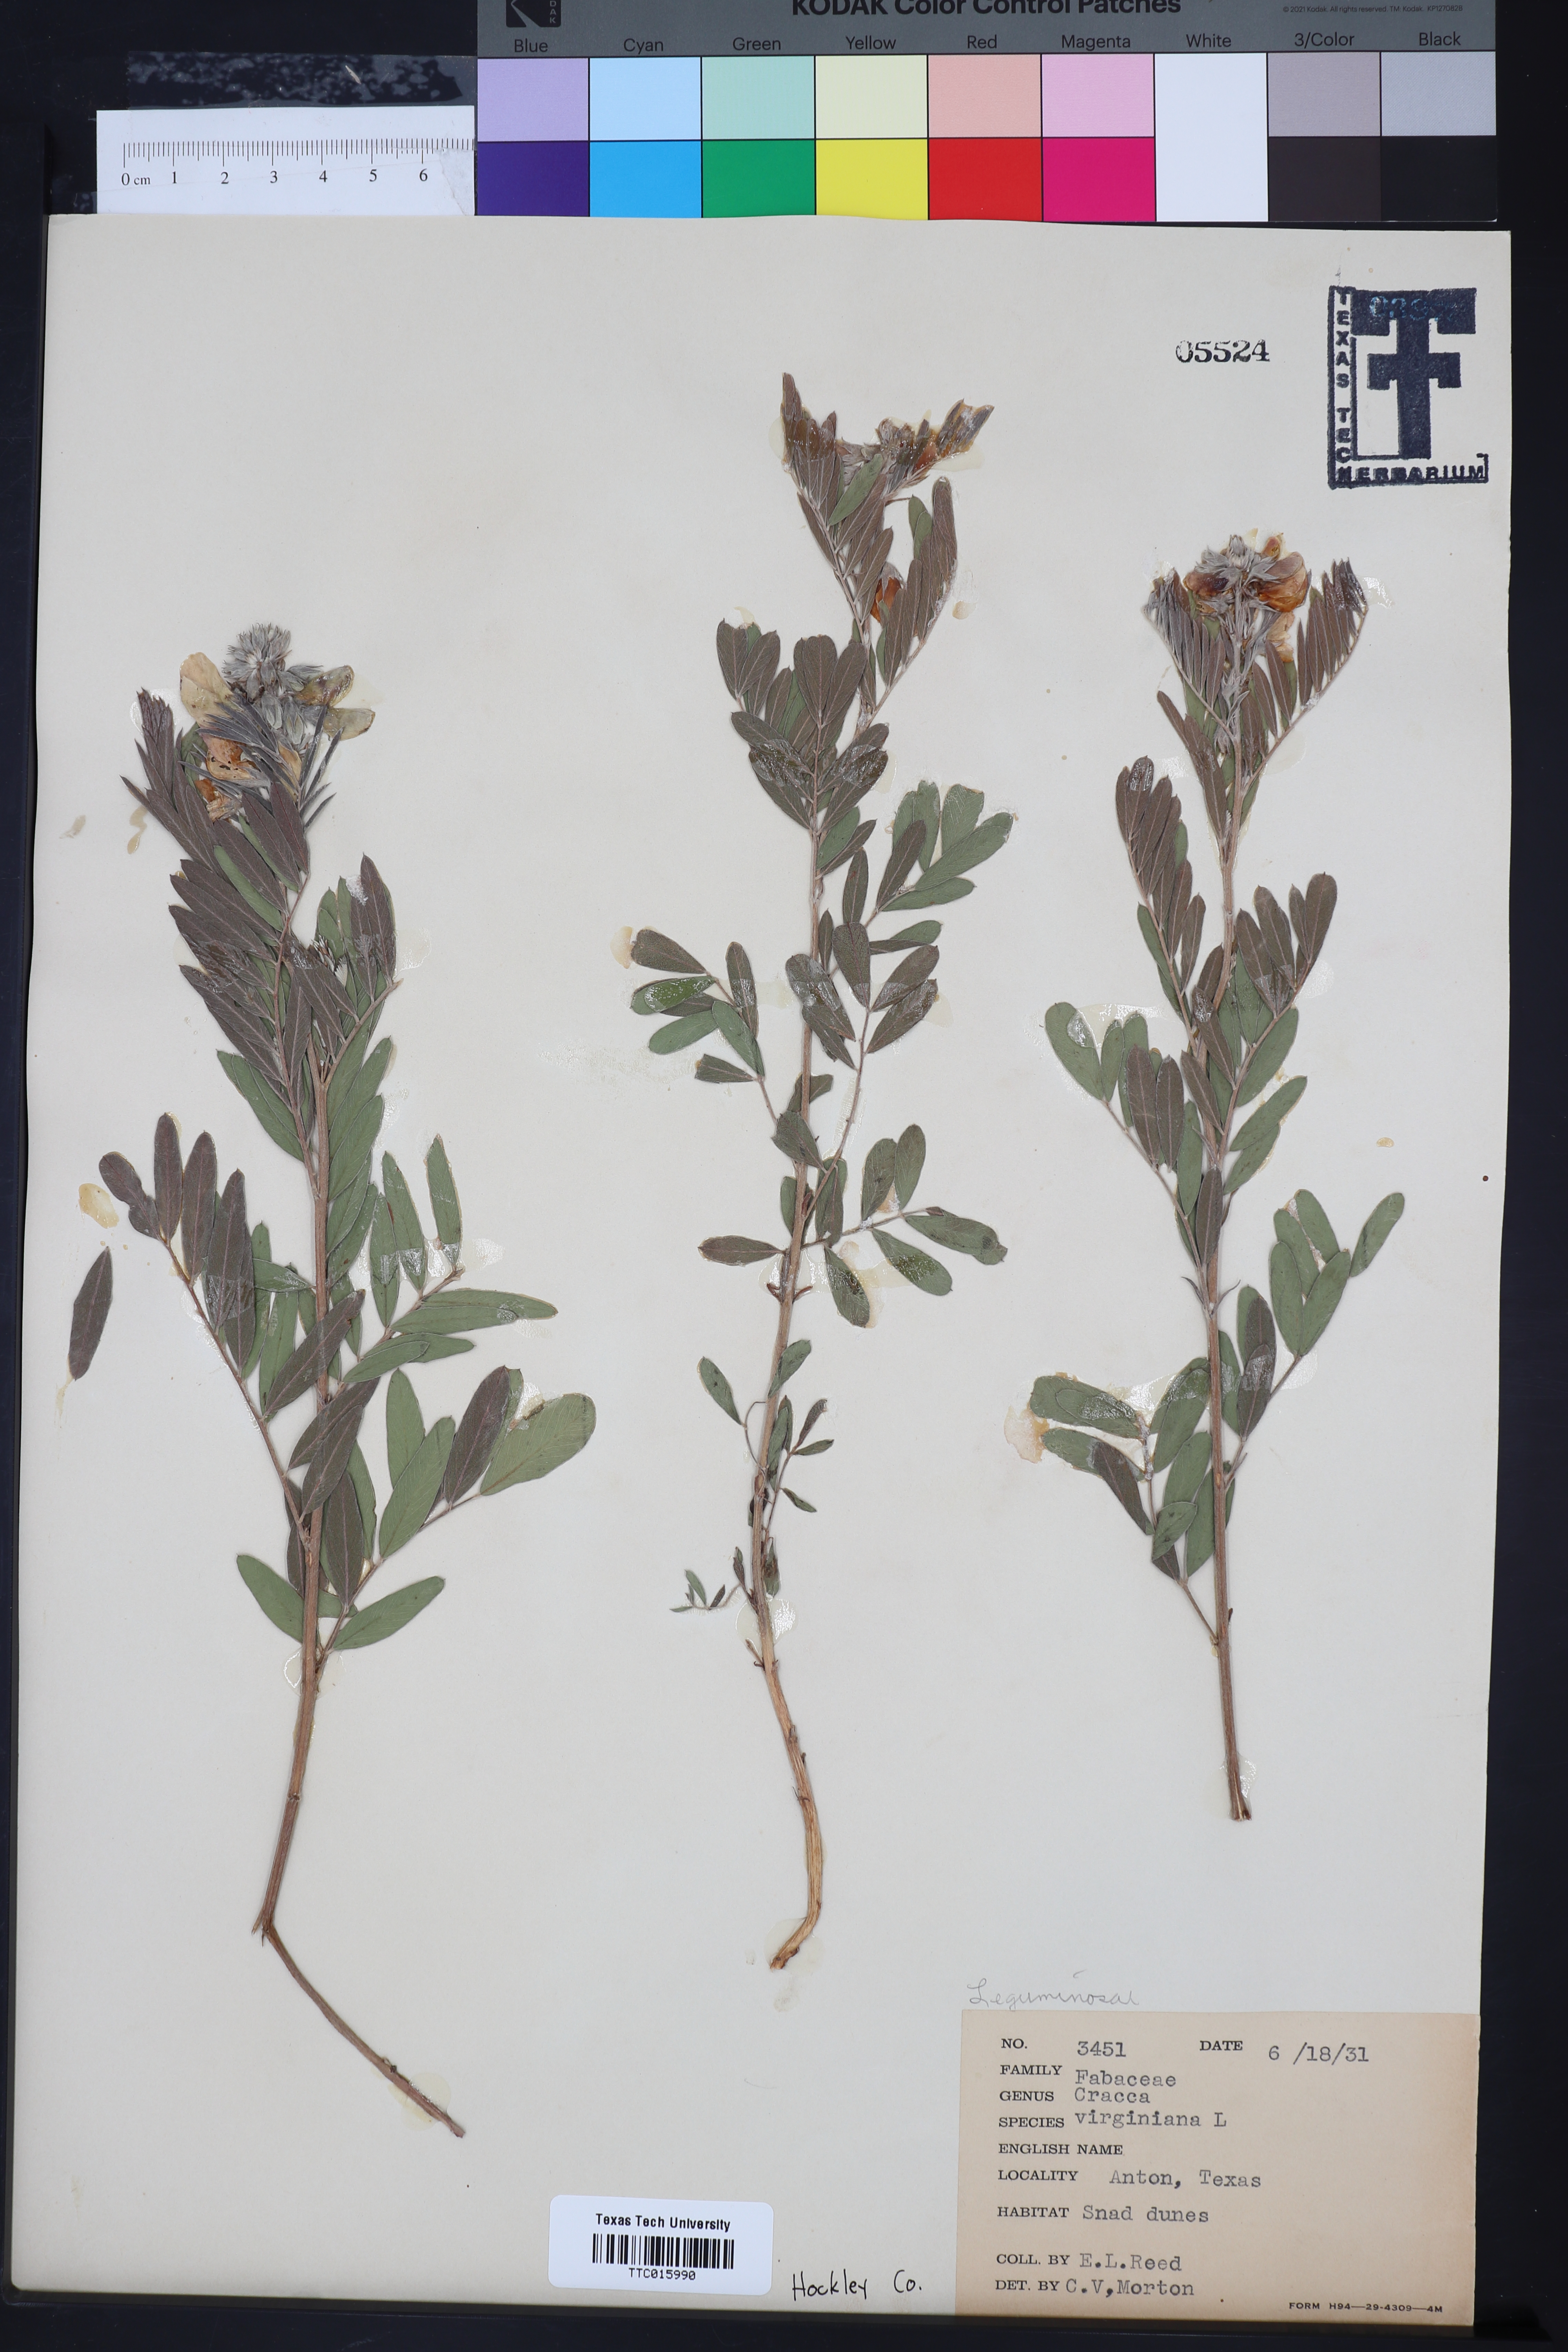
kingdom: Plantae
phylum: Tracheophyta
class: Magnoliopsida
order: Fabales
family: Fabaceae
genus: Tephrosia
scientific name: Tephrosia virginiana
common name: Rabbit-pea
